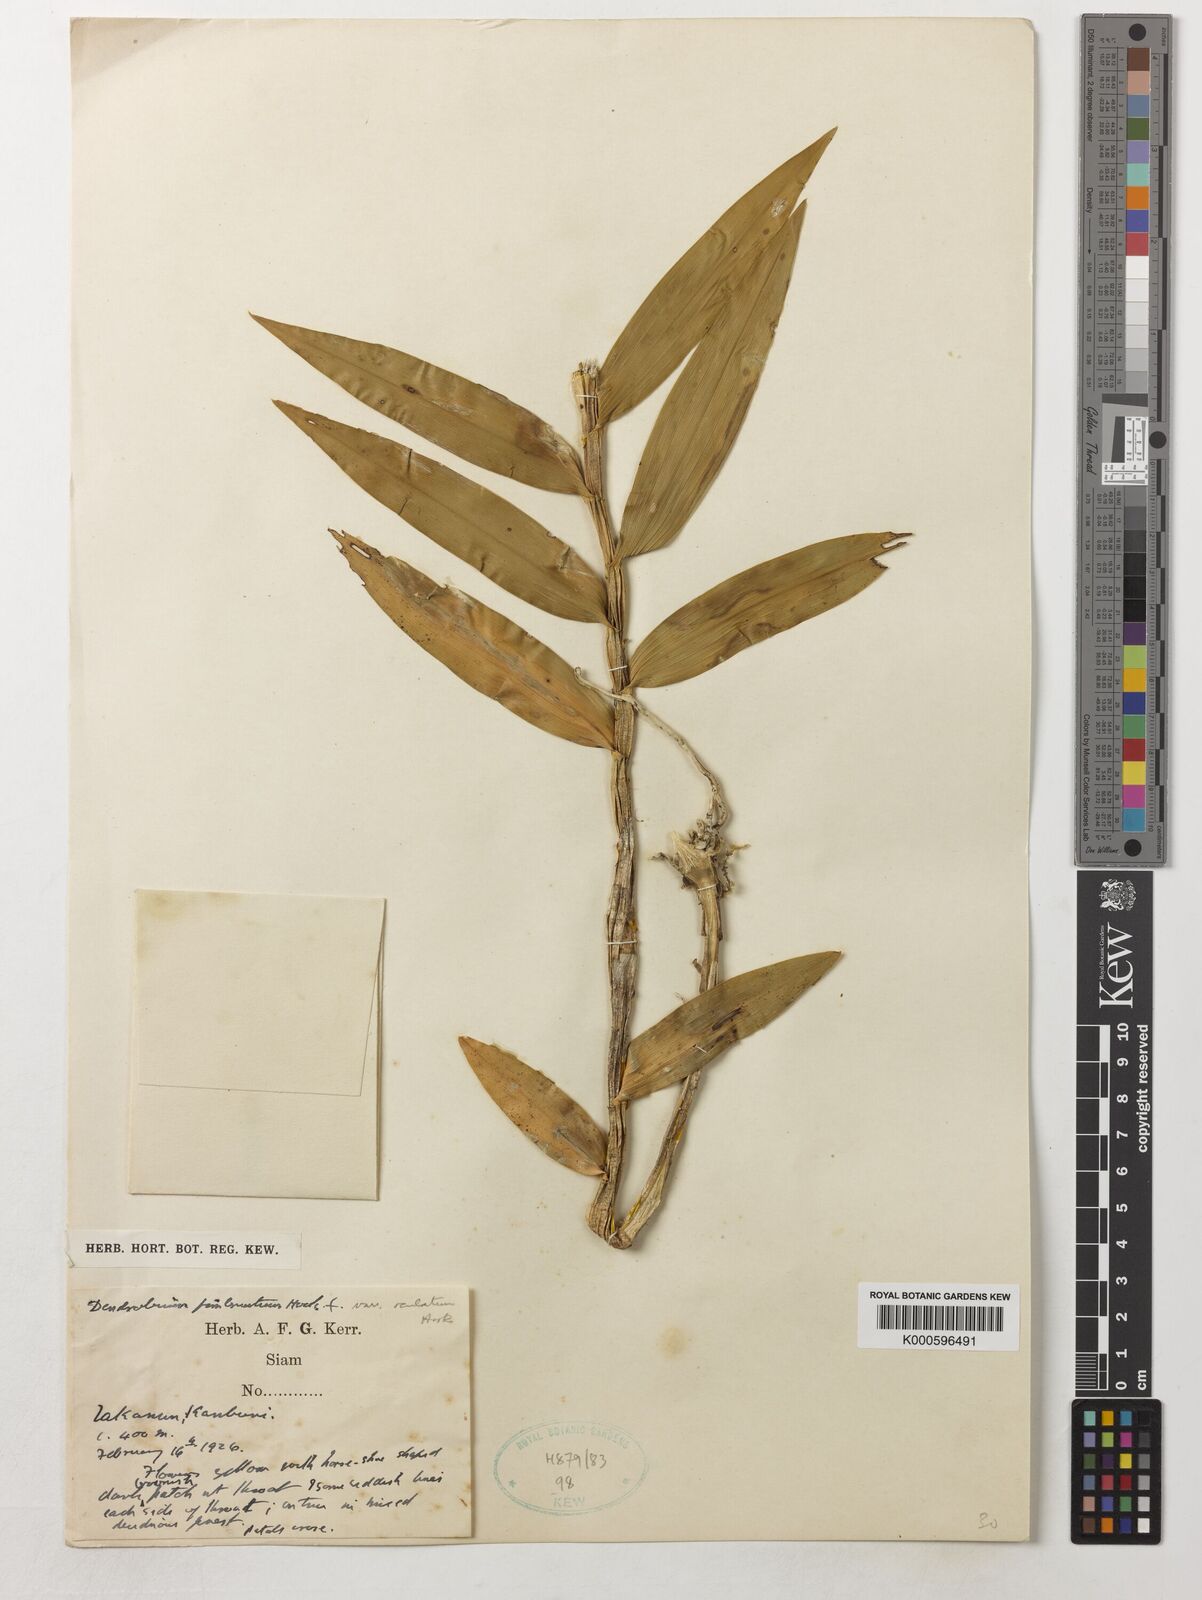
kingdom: Plantae
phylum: Tracheophyta
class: Liliopsida
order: Asparagales
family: Orchidaceae
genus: Dendrobium
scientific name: Dendrobium fimbriatum
